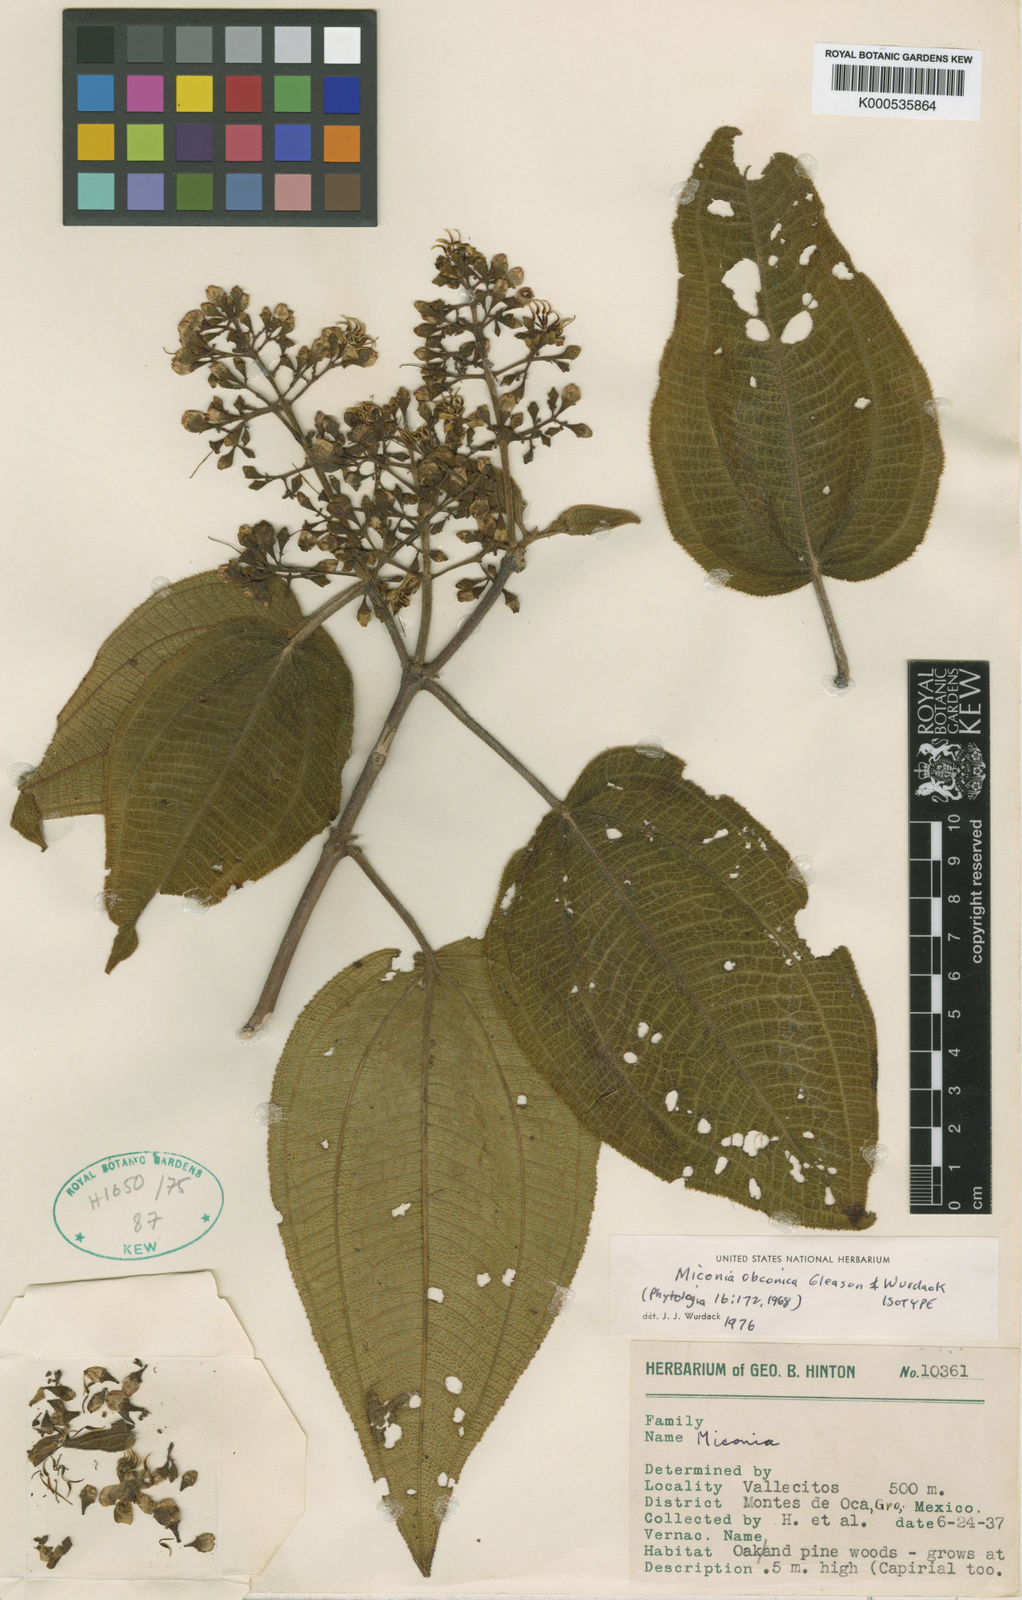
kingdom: Plantae
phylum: Tracheophyta
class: Magnoliopsida
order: Myrtales
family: Melastomataceae
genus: Miconia
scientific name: Miconia obconica
